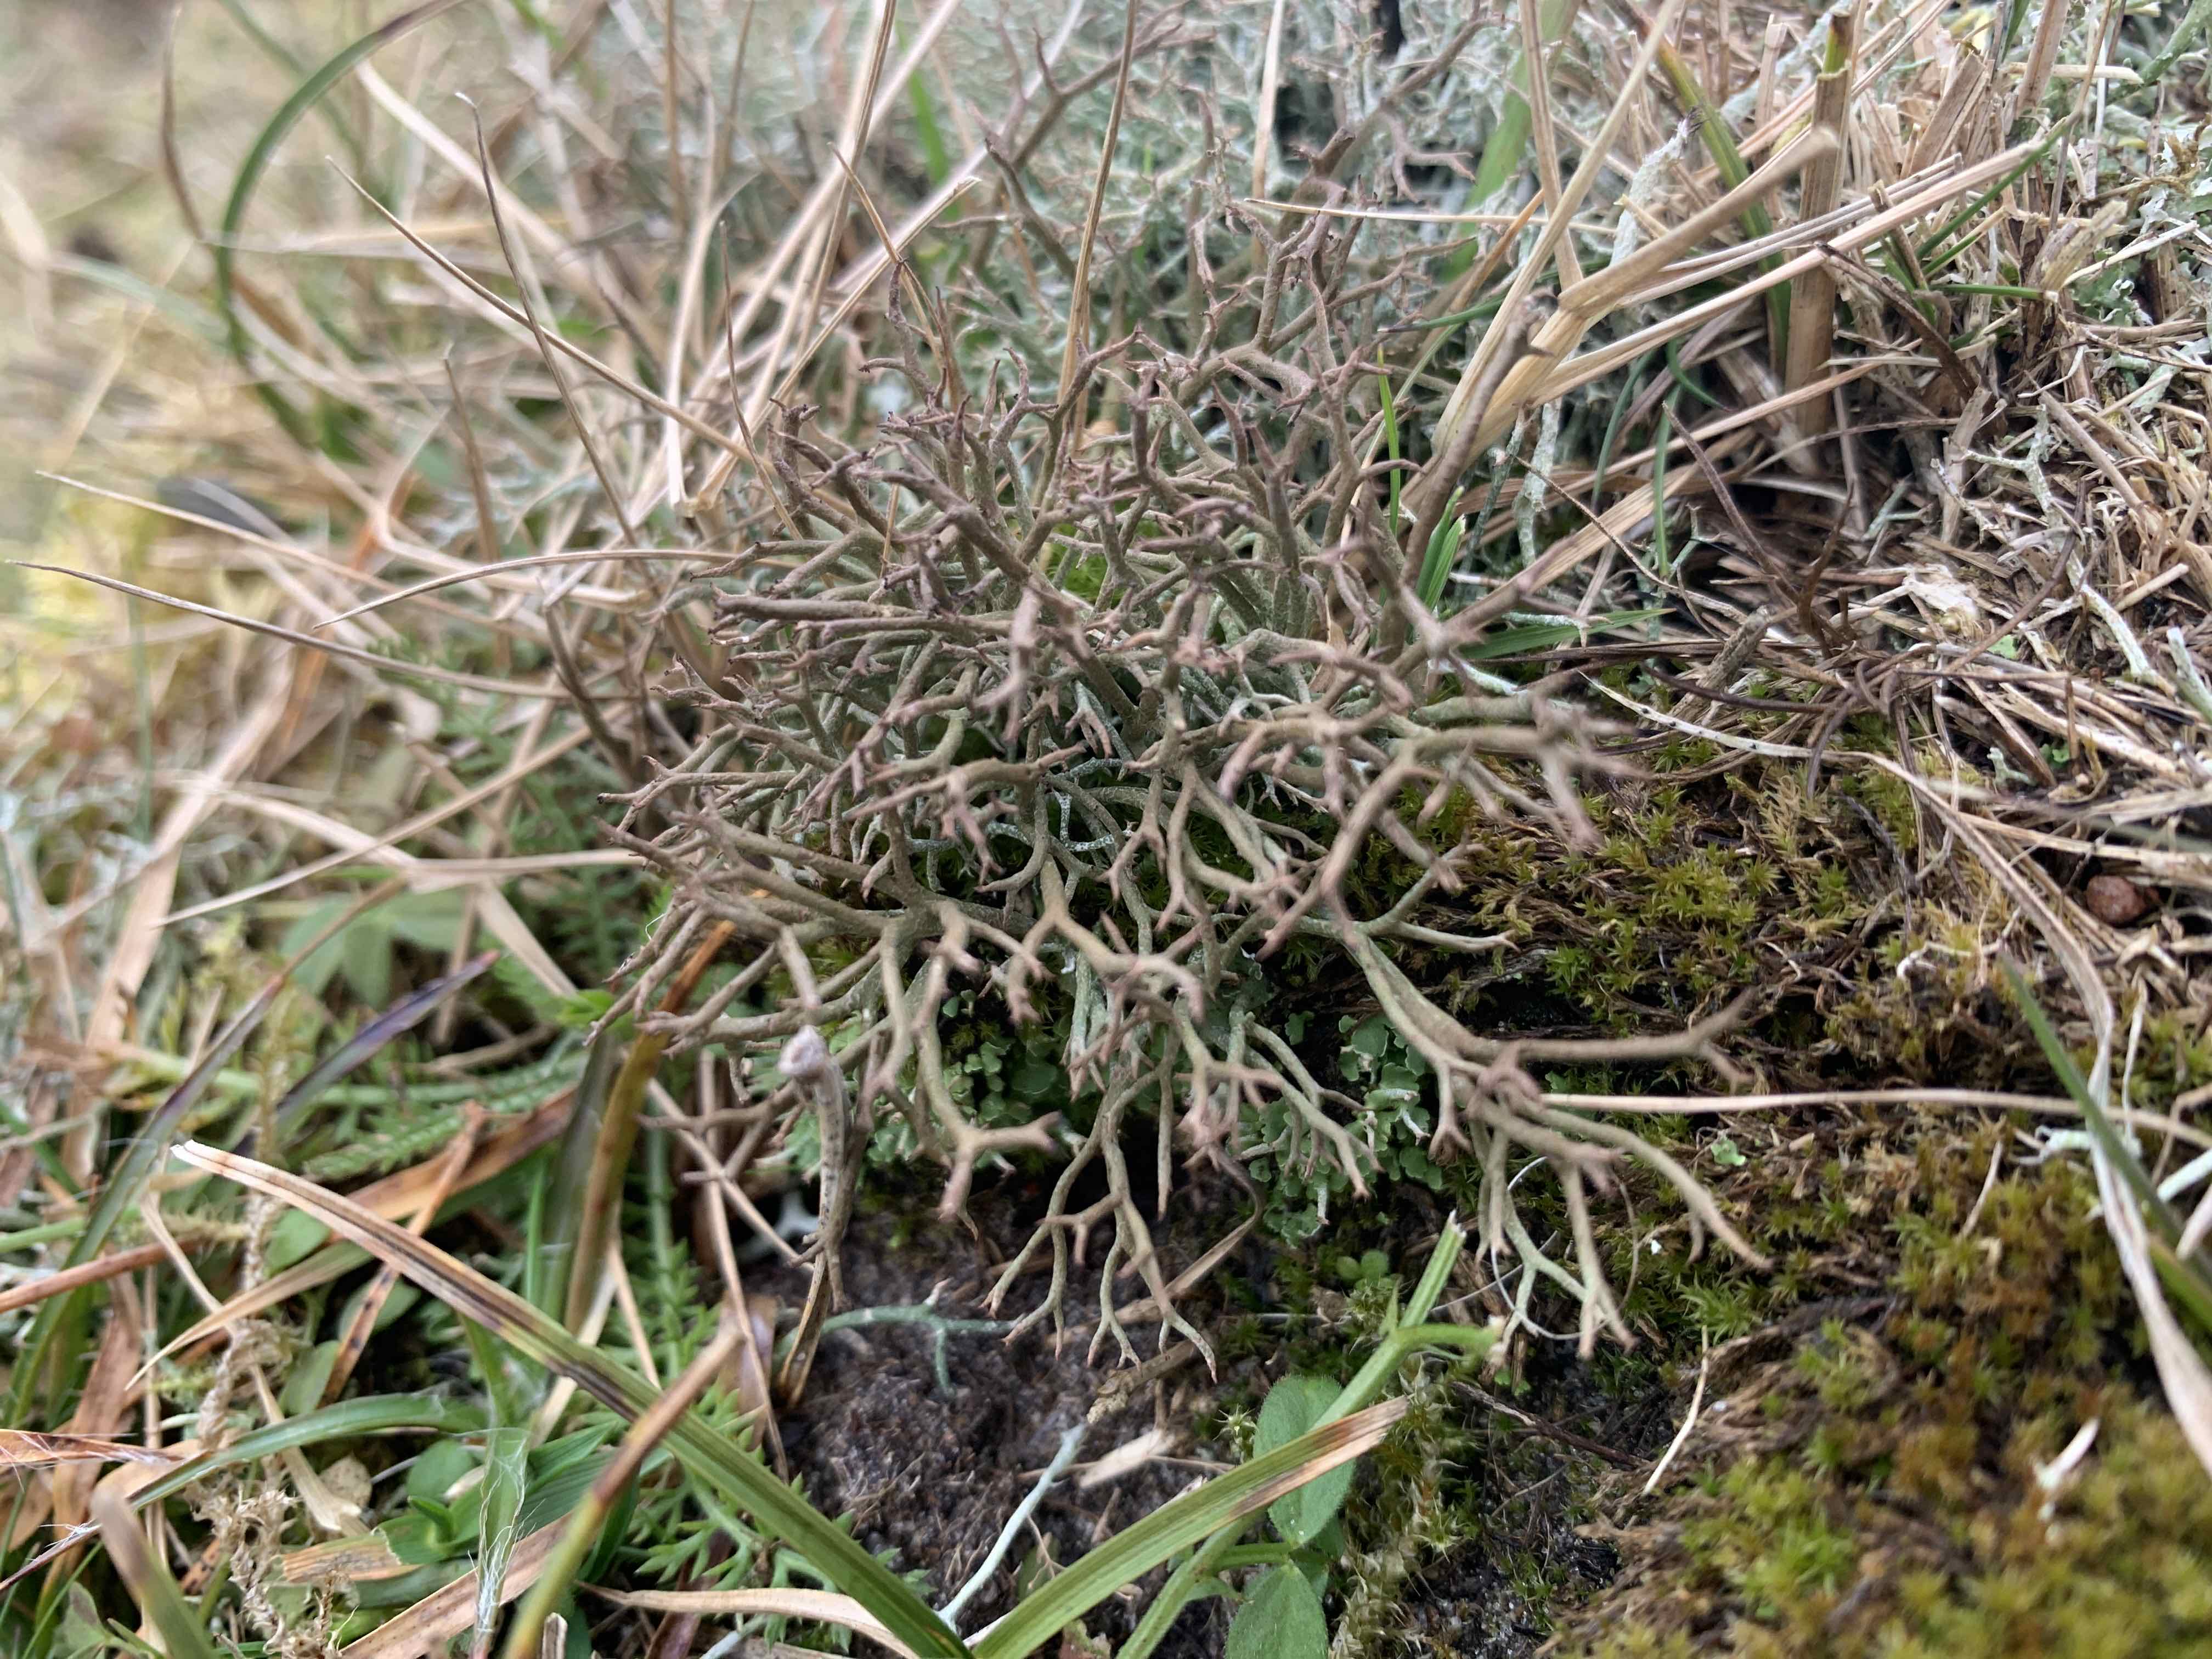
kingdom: Fungi
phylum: Ascomycota
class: Lecanoromycetes
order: Lecanorales
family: Cladoniaceae
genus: Cladonia
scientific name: Cladonia furcata
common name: kløftet bægerlav
